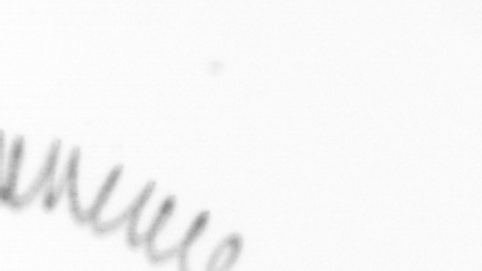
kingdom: Chromista
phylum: Ochrophyta
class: Bacillariophyceae
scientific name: Bacillariophyceae
